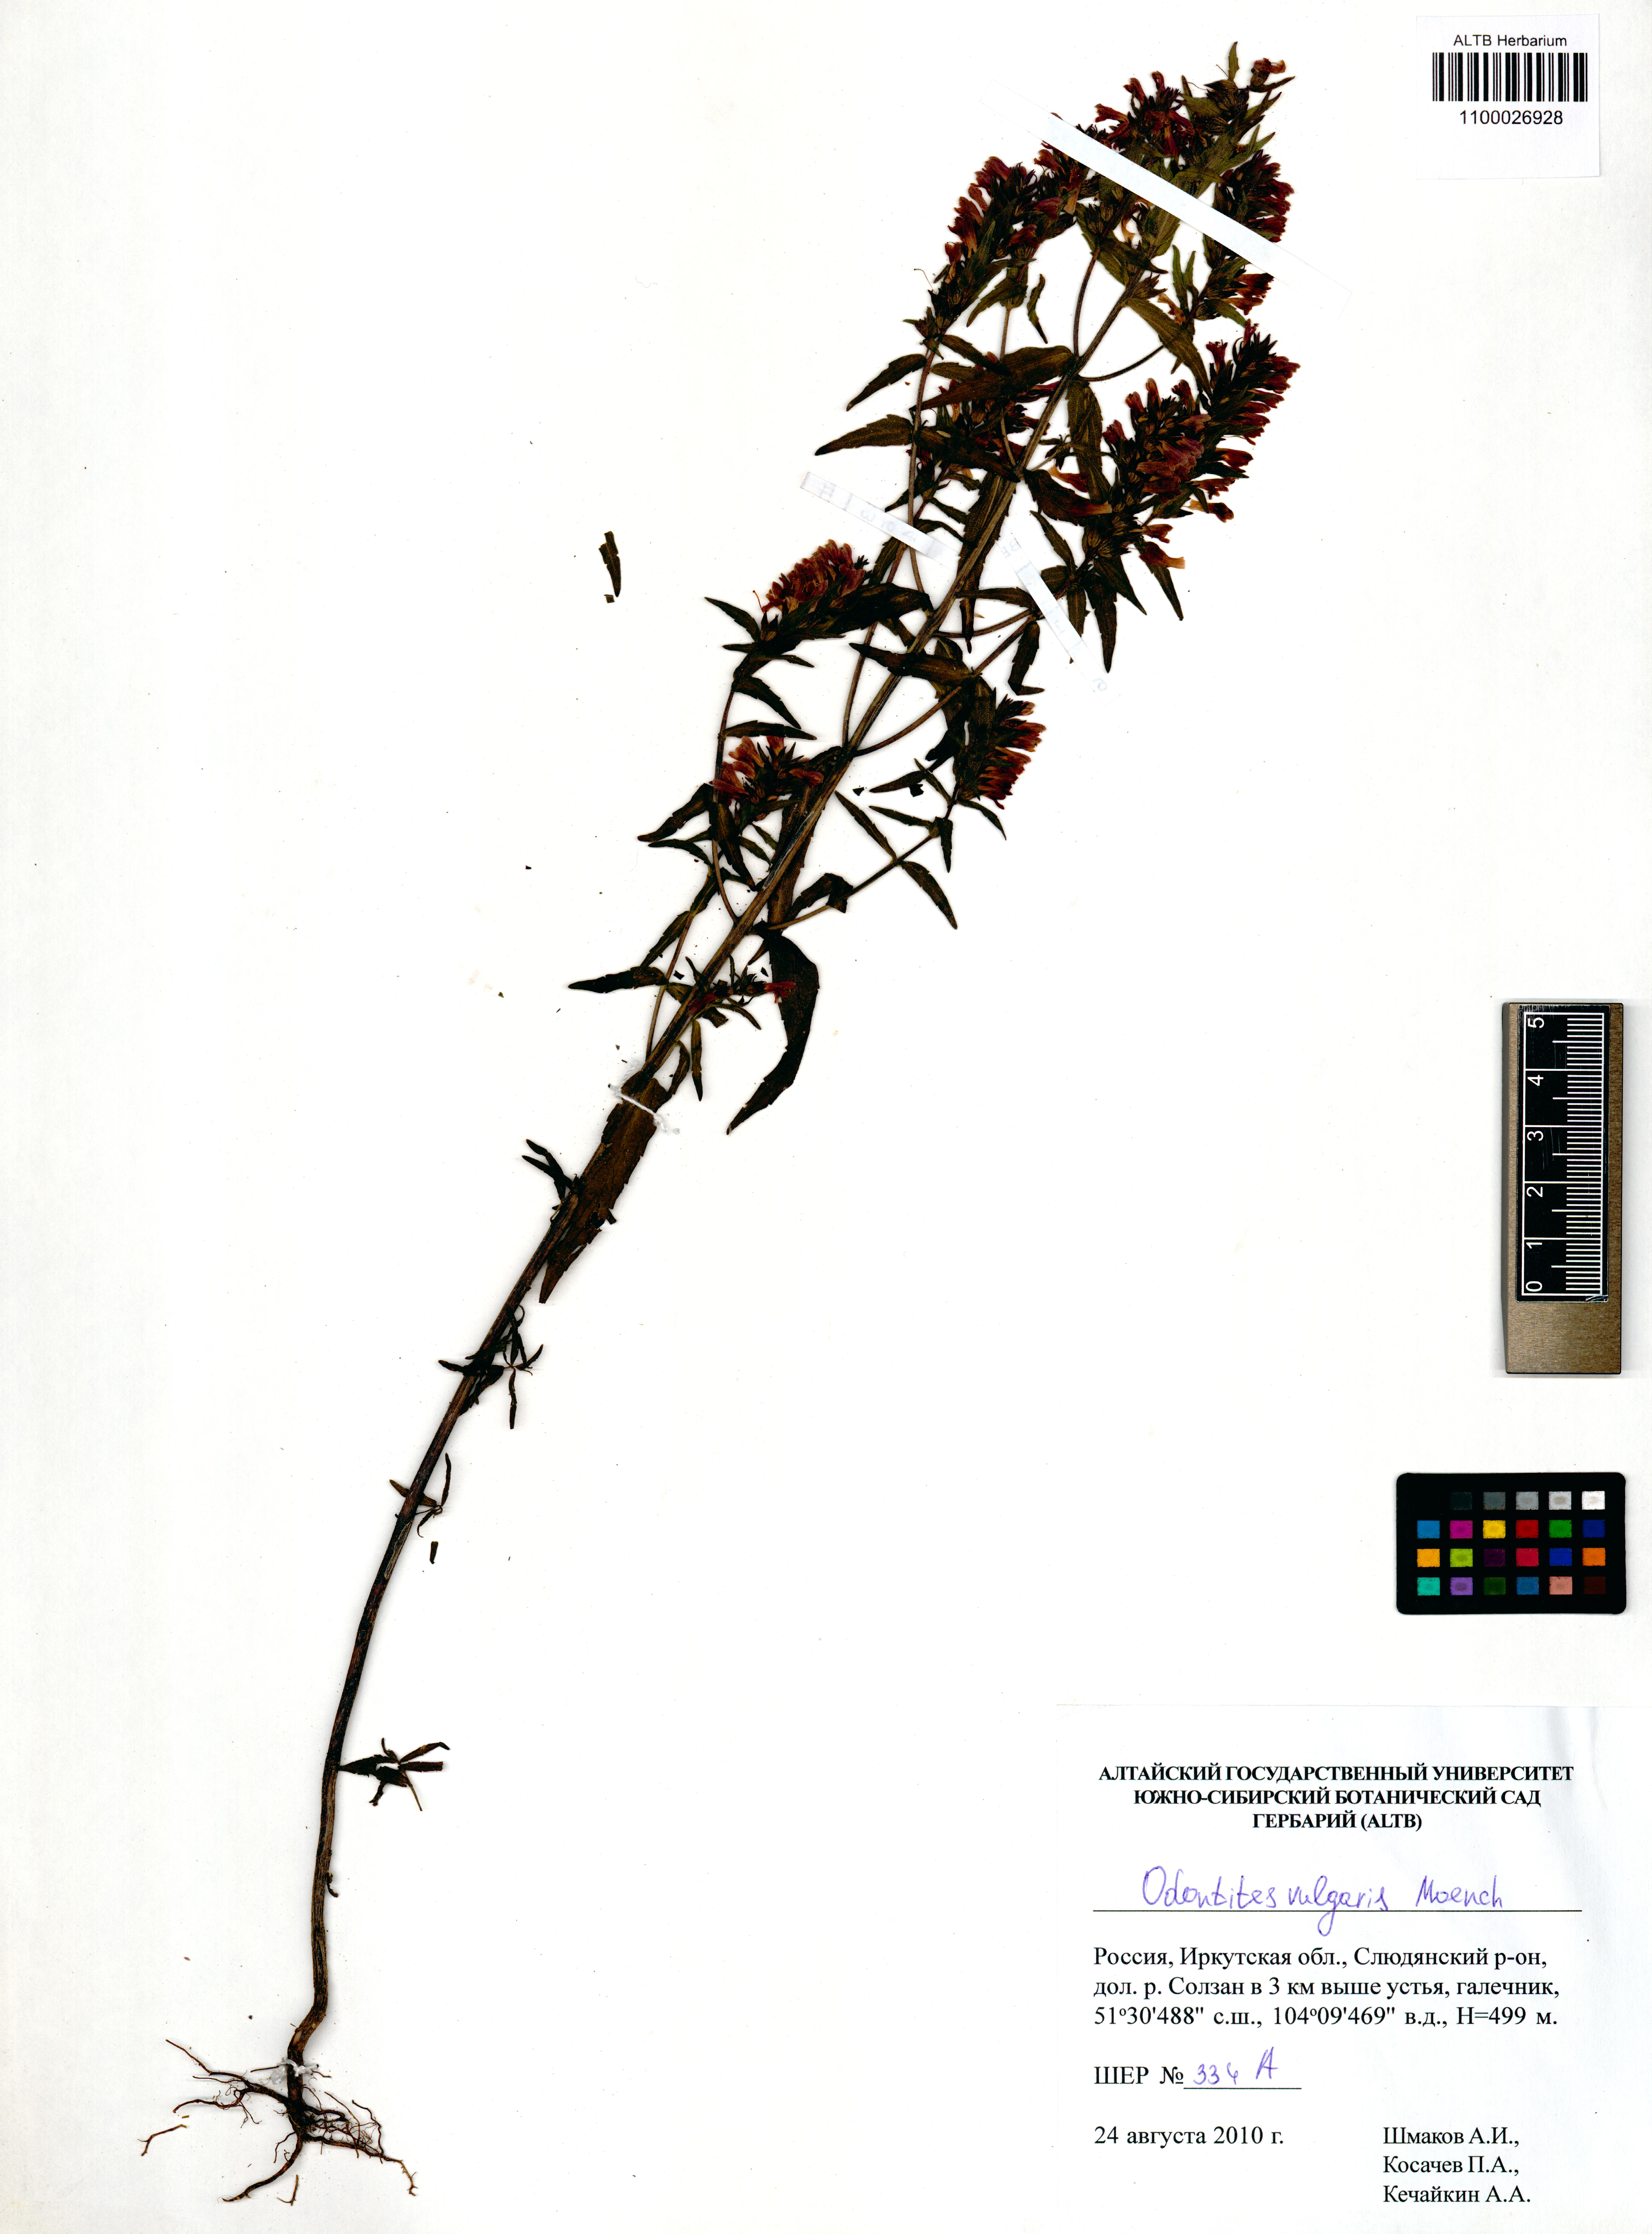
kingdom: Plantae
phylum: Tracheophyta
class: Magnoliopsida
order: Lamiales
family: Orobanchaceae
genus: Odontites
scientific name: Odontites vulgaris
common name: Broomrape
